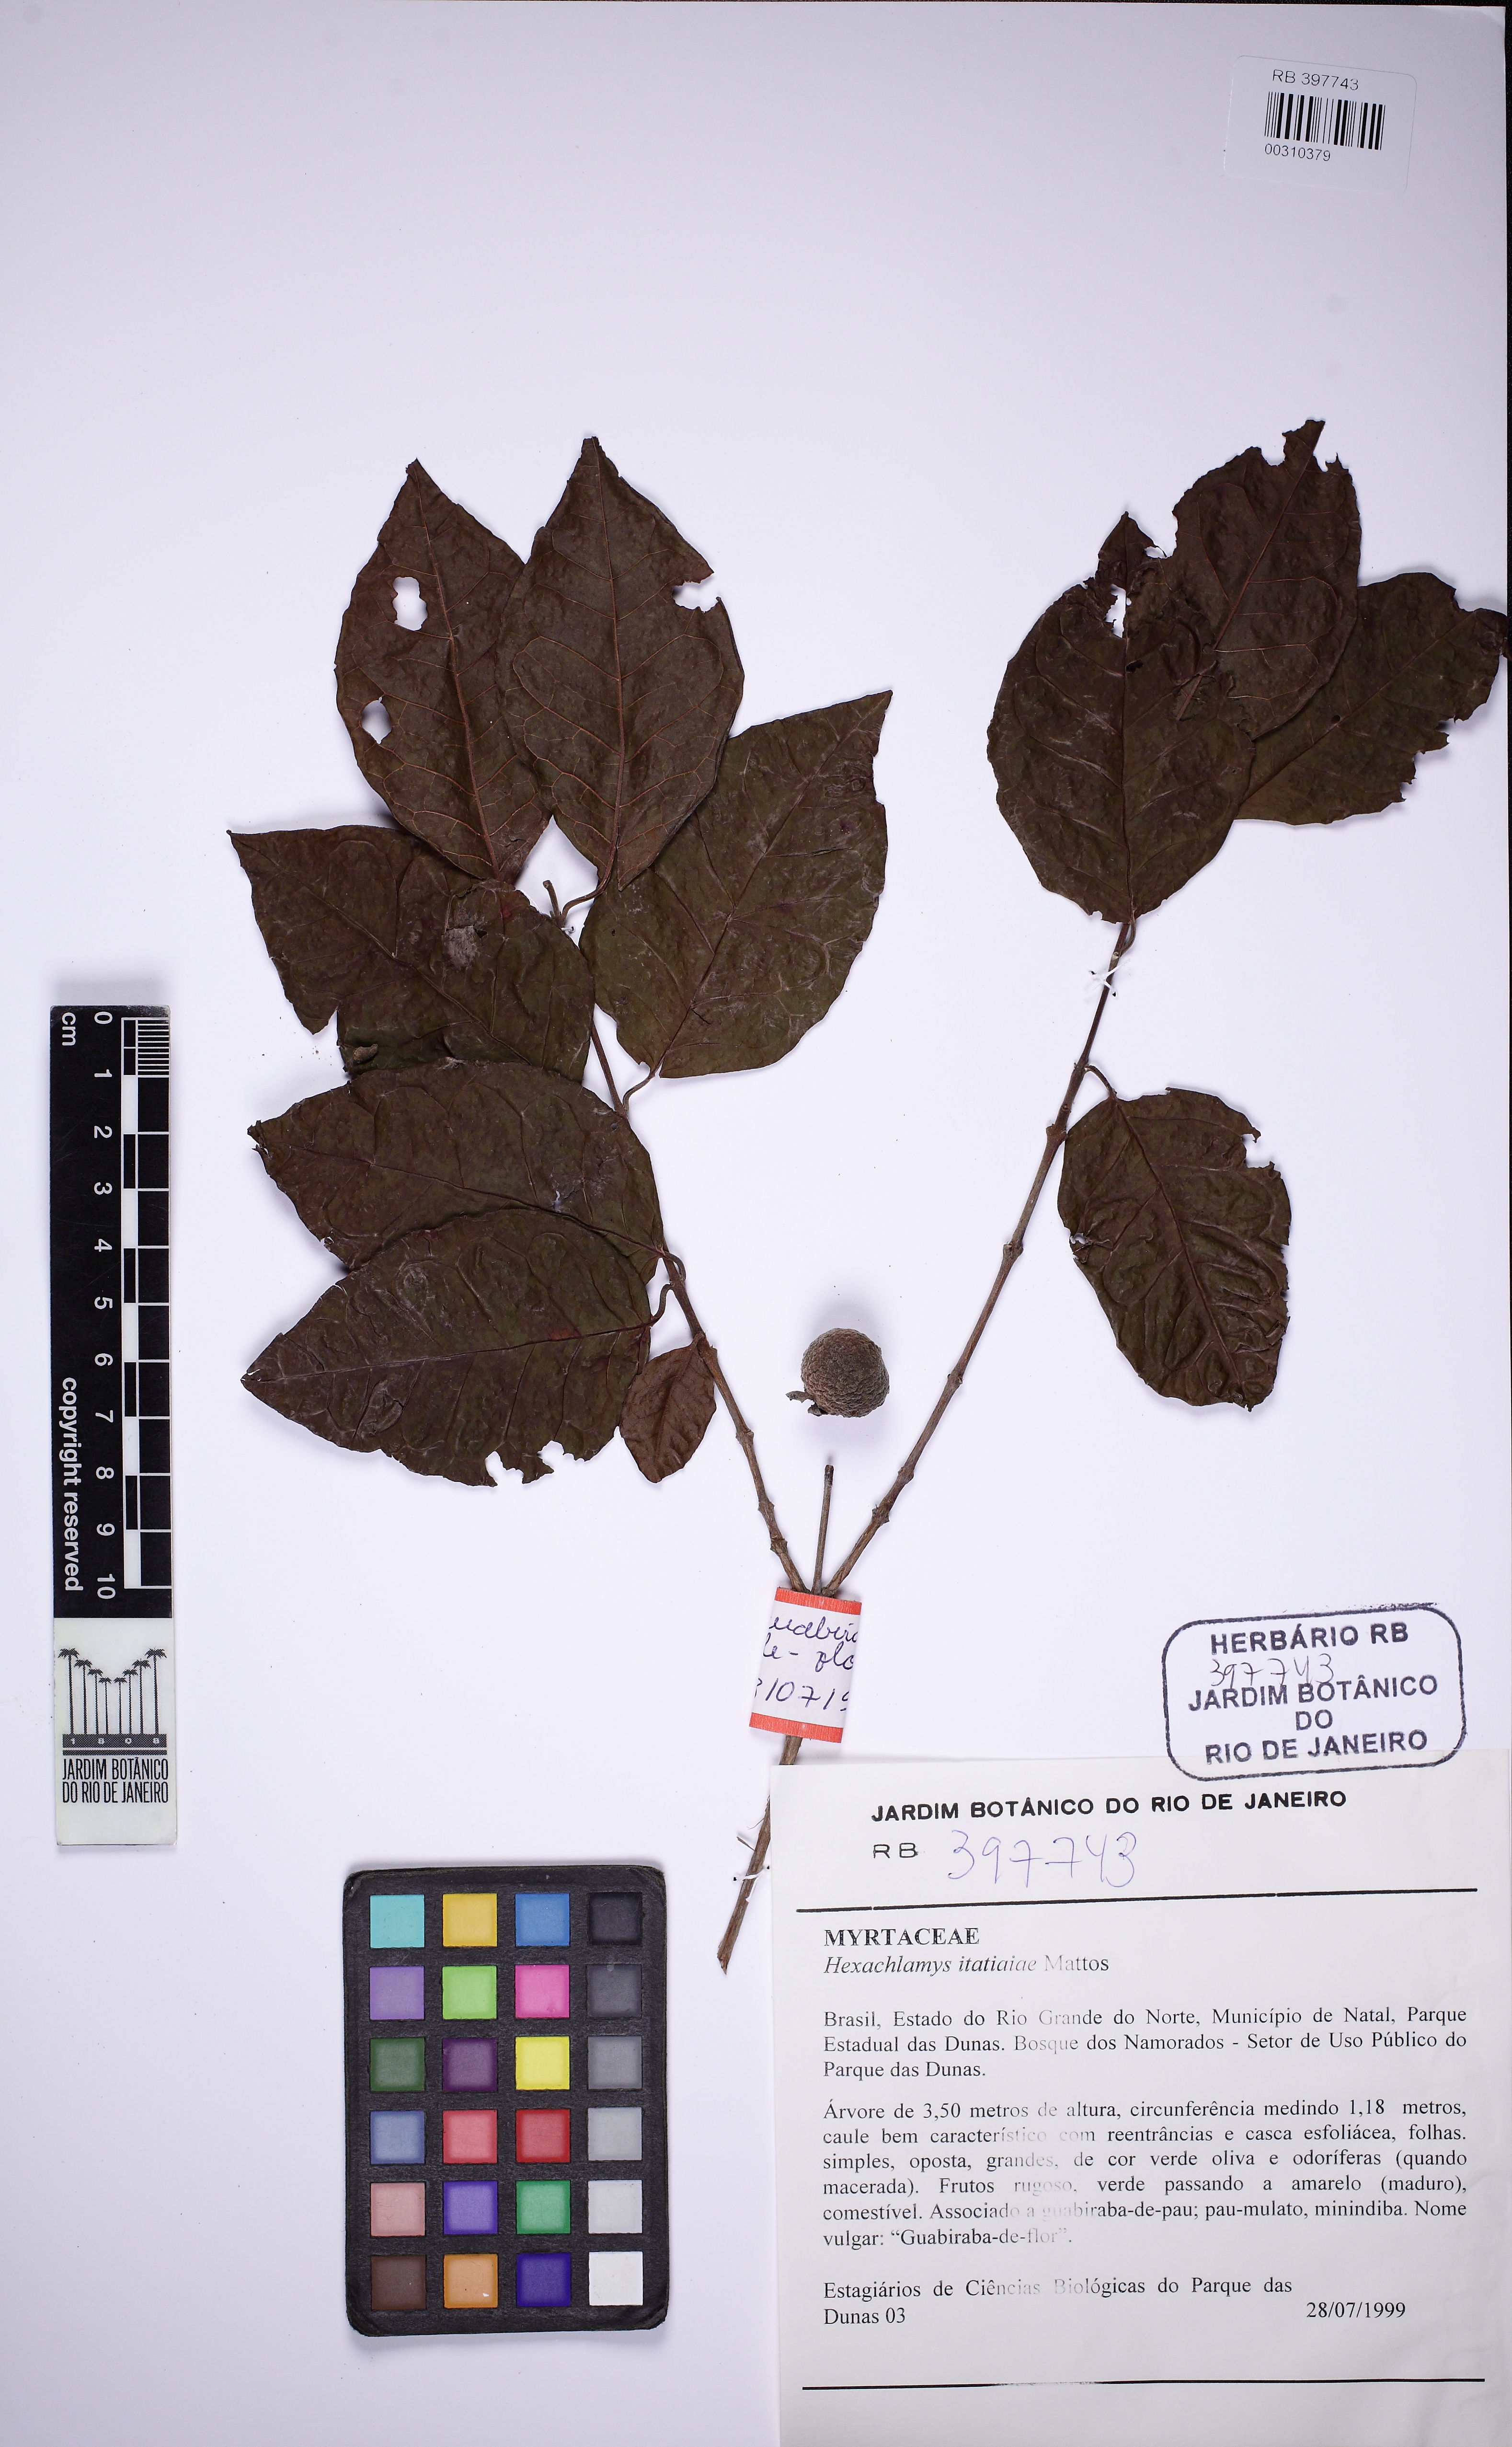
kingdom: Plantae
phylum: Tracheophyta
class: Magnoliopsida
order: Myrtales
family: Myrtaceae
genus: Eugenia
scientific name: Eugenia
